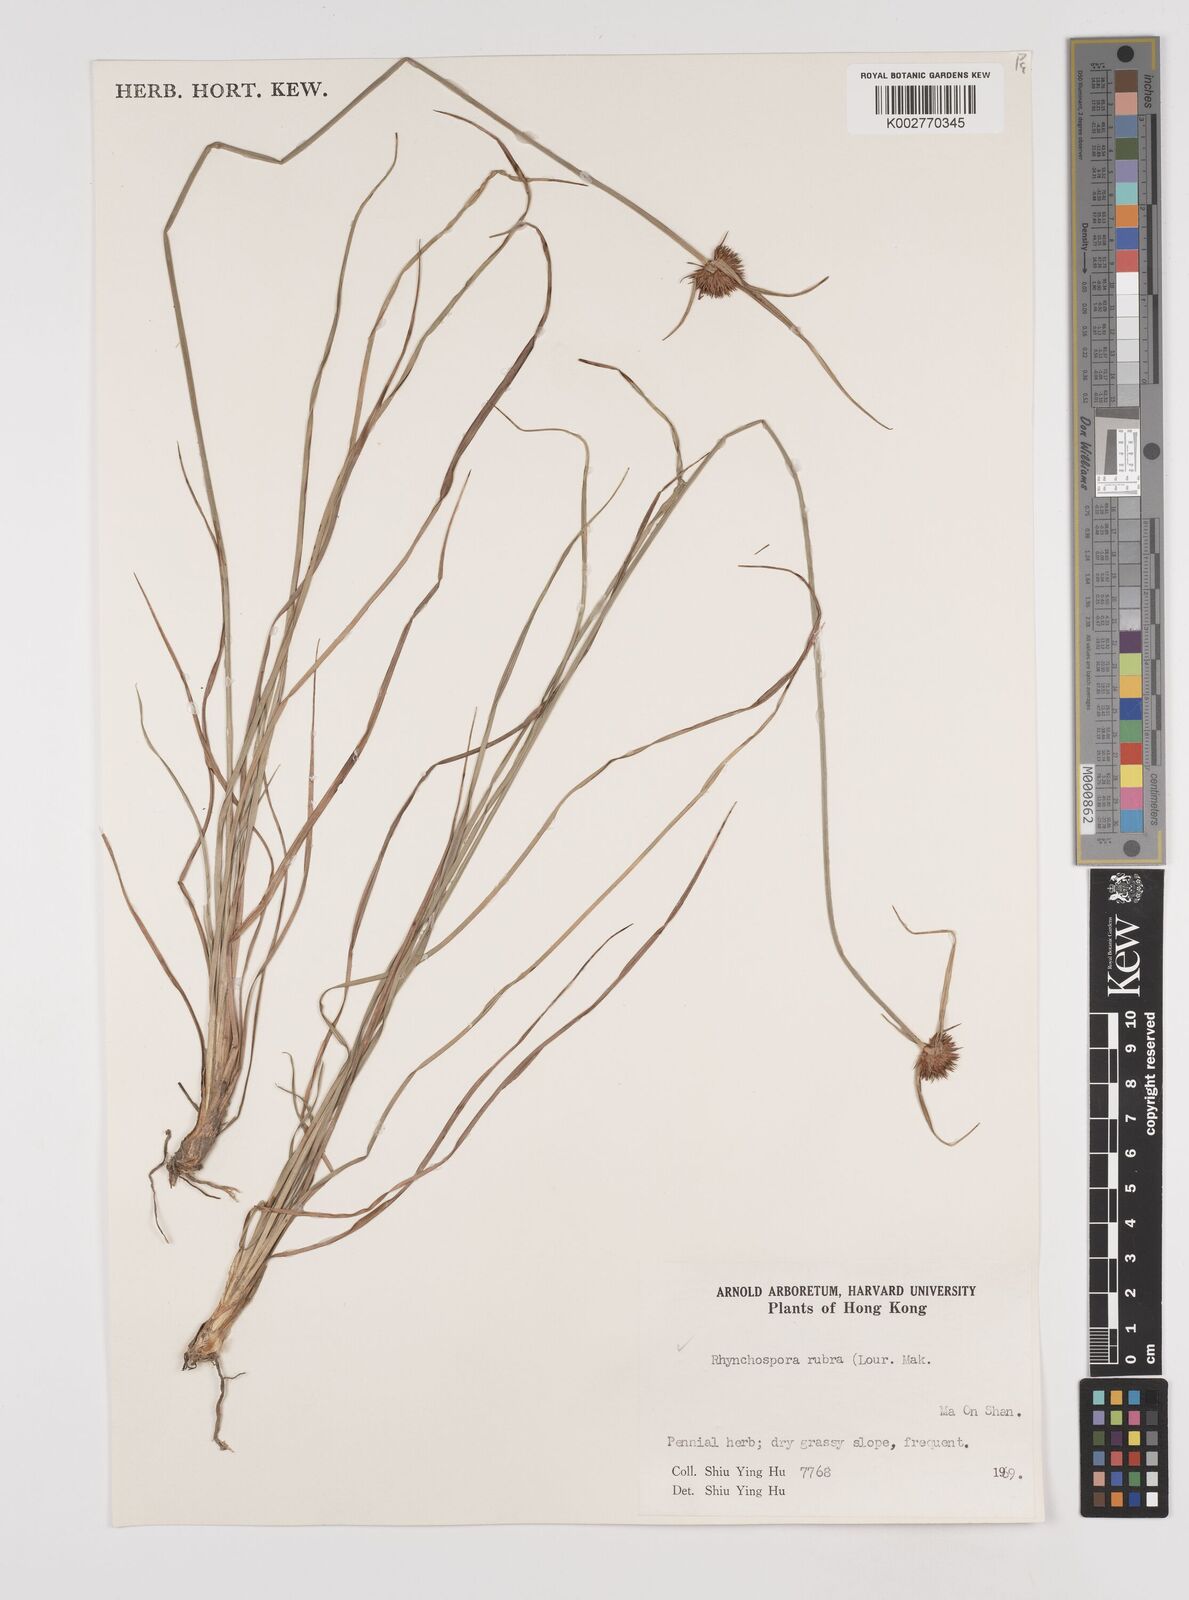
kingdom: Plantae
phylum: Tracheophyta
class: Liliopsida
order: Poales
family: Cyperaceae
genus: Rhynchospora
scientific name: Rhynchospora rubra
